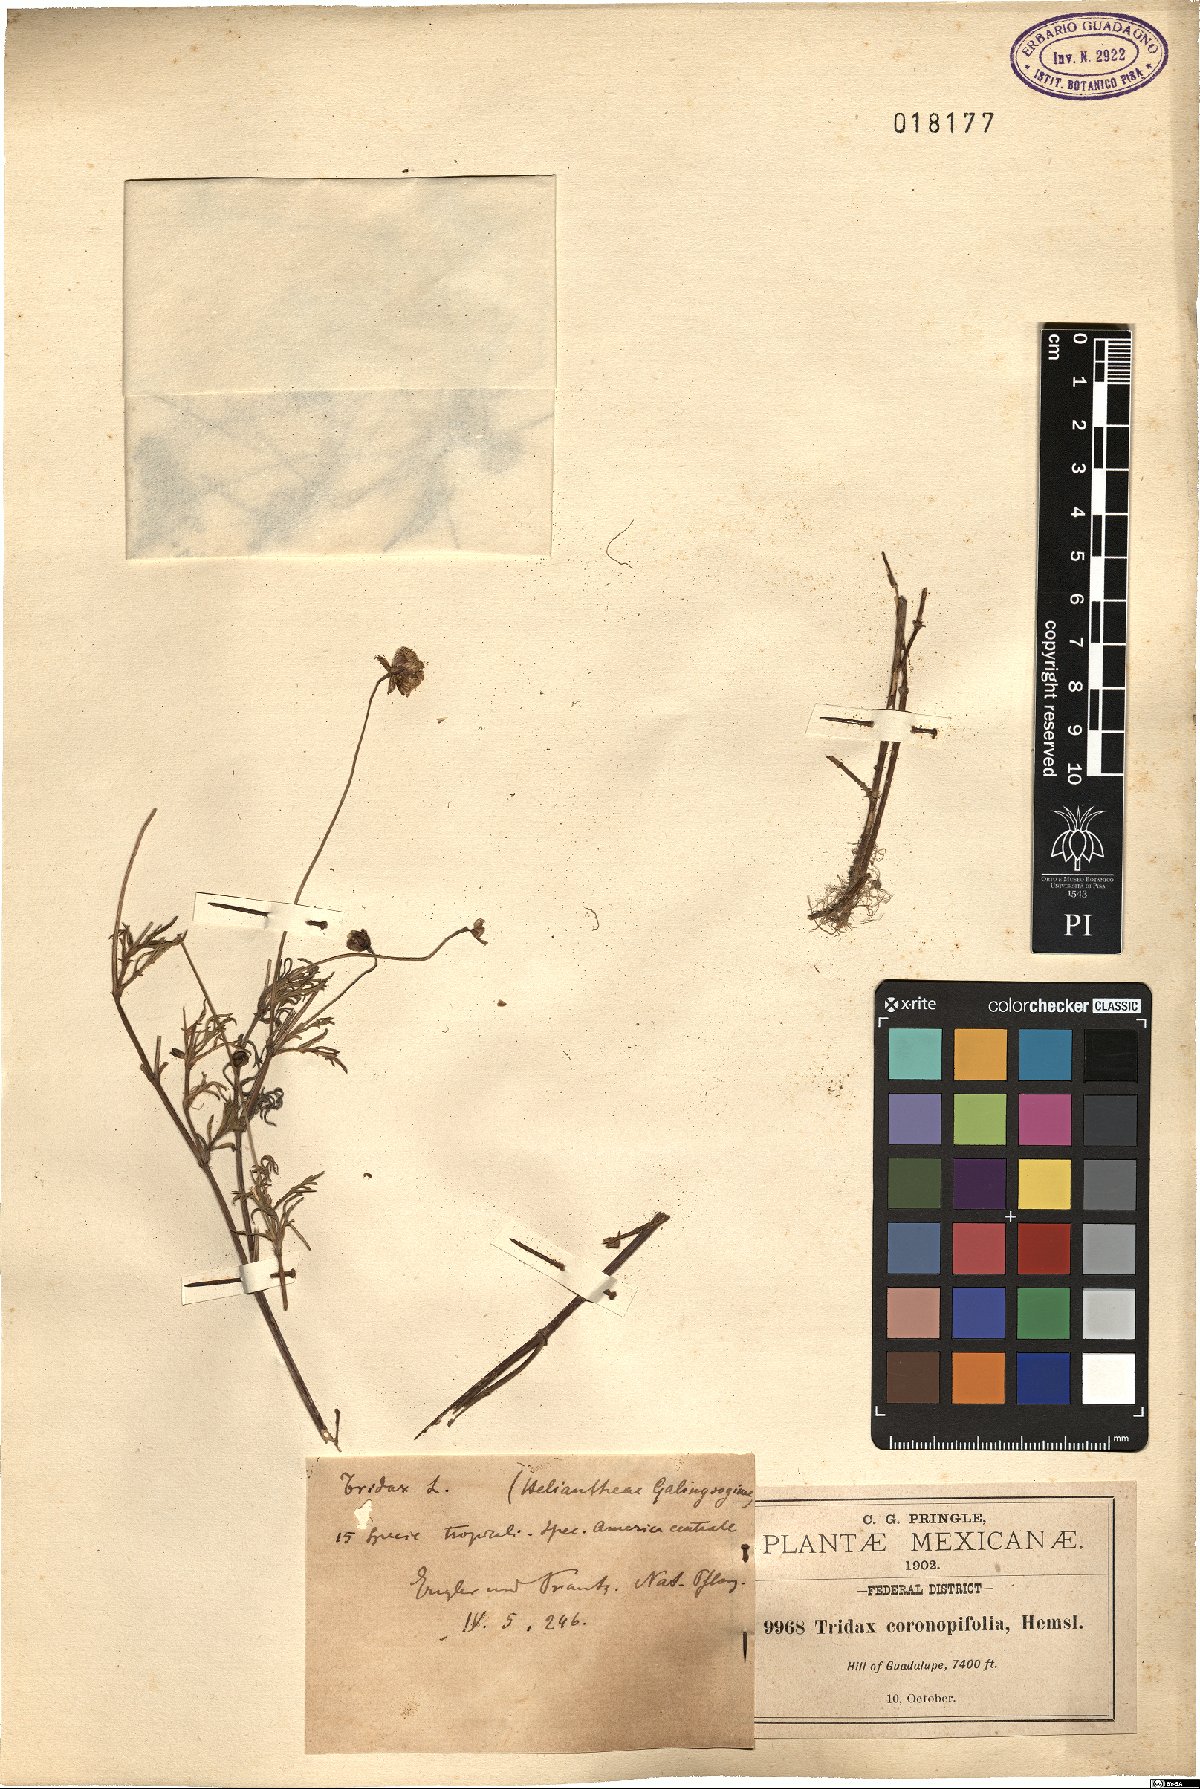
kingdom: Plantae
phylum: Tracheophyta
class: Magnoliopsida
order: Asterales
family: Asteraceae
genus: Tridax
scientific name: Tridax coronopifolia
